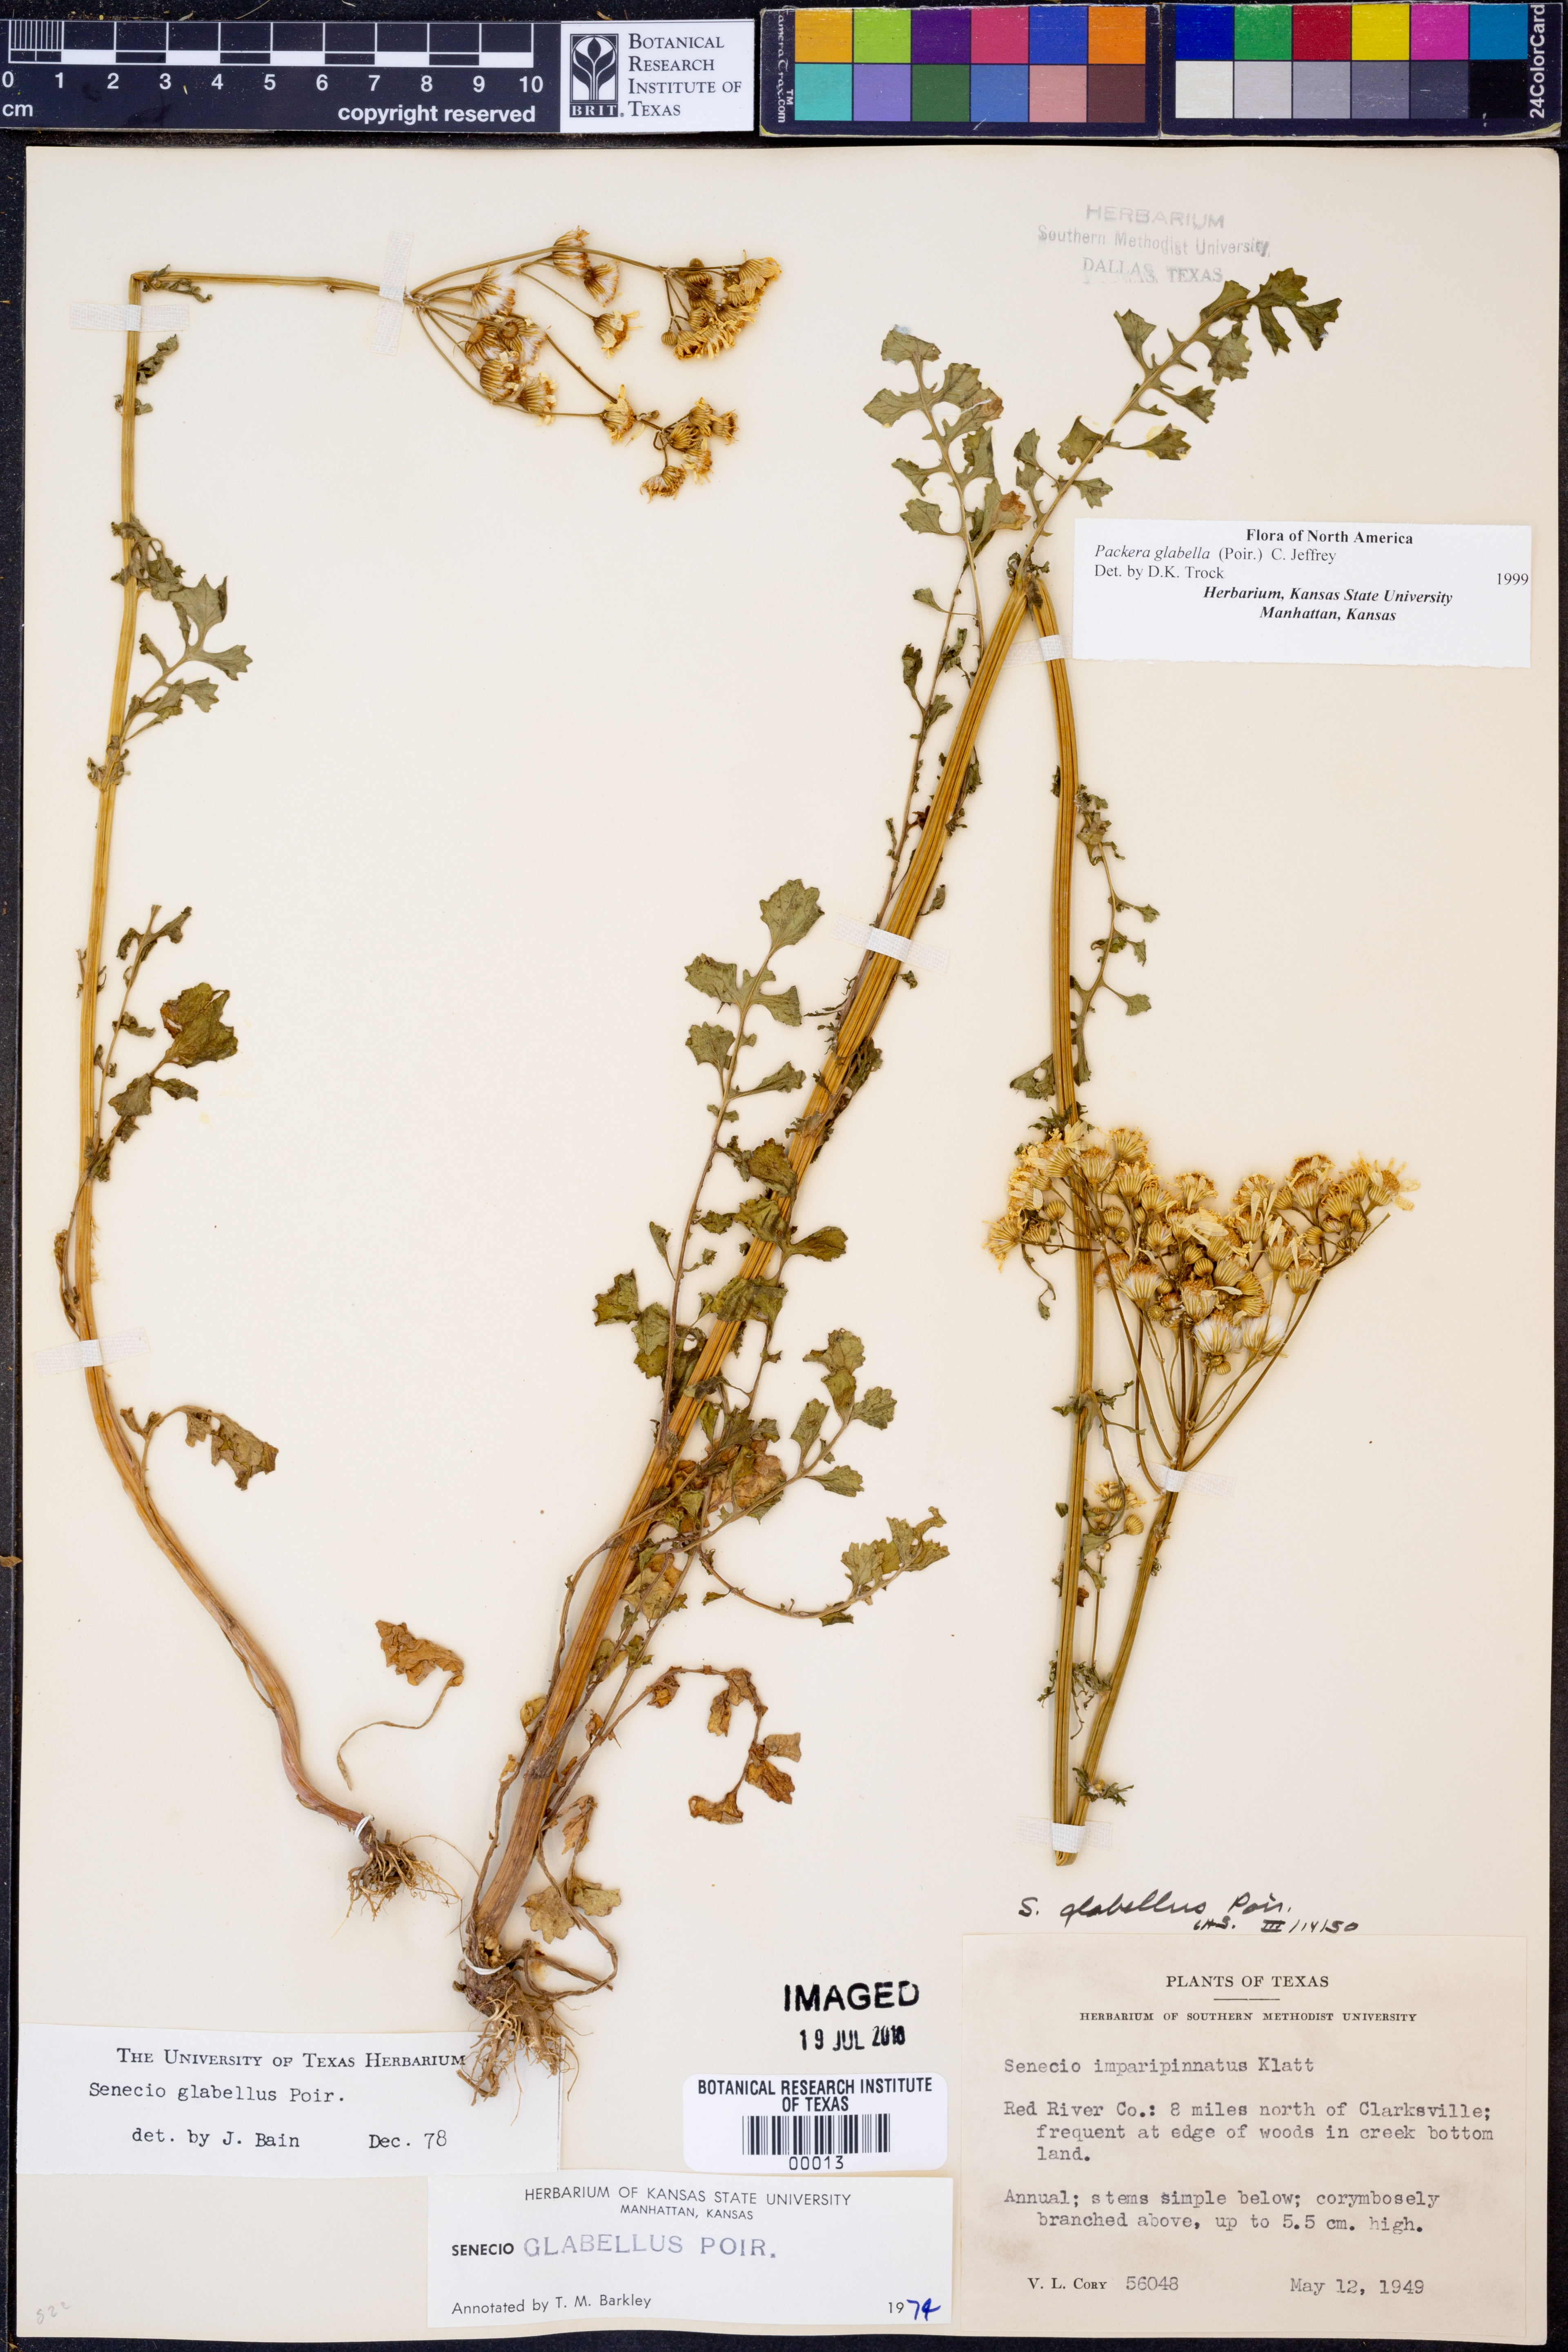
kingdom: Plantae
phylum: Tracheophyta
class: Magnoliopsida
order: Asterales
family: Asteraceae
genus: Packera
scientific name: Packera glabella
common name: Butterweed
